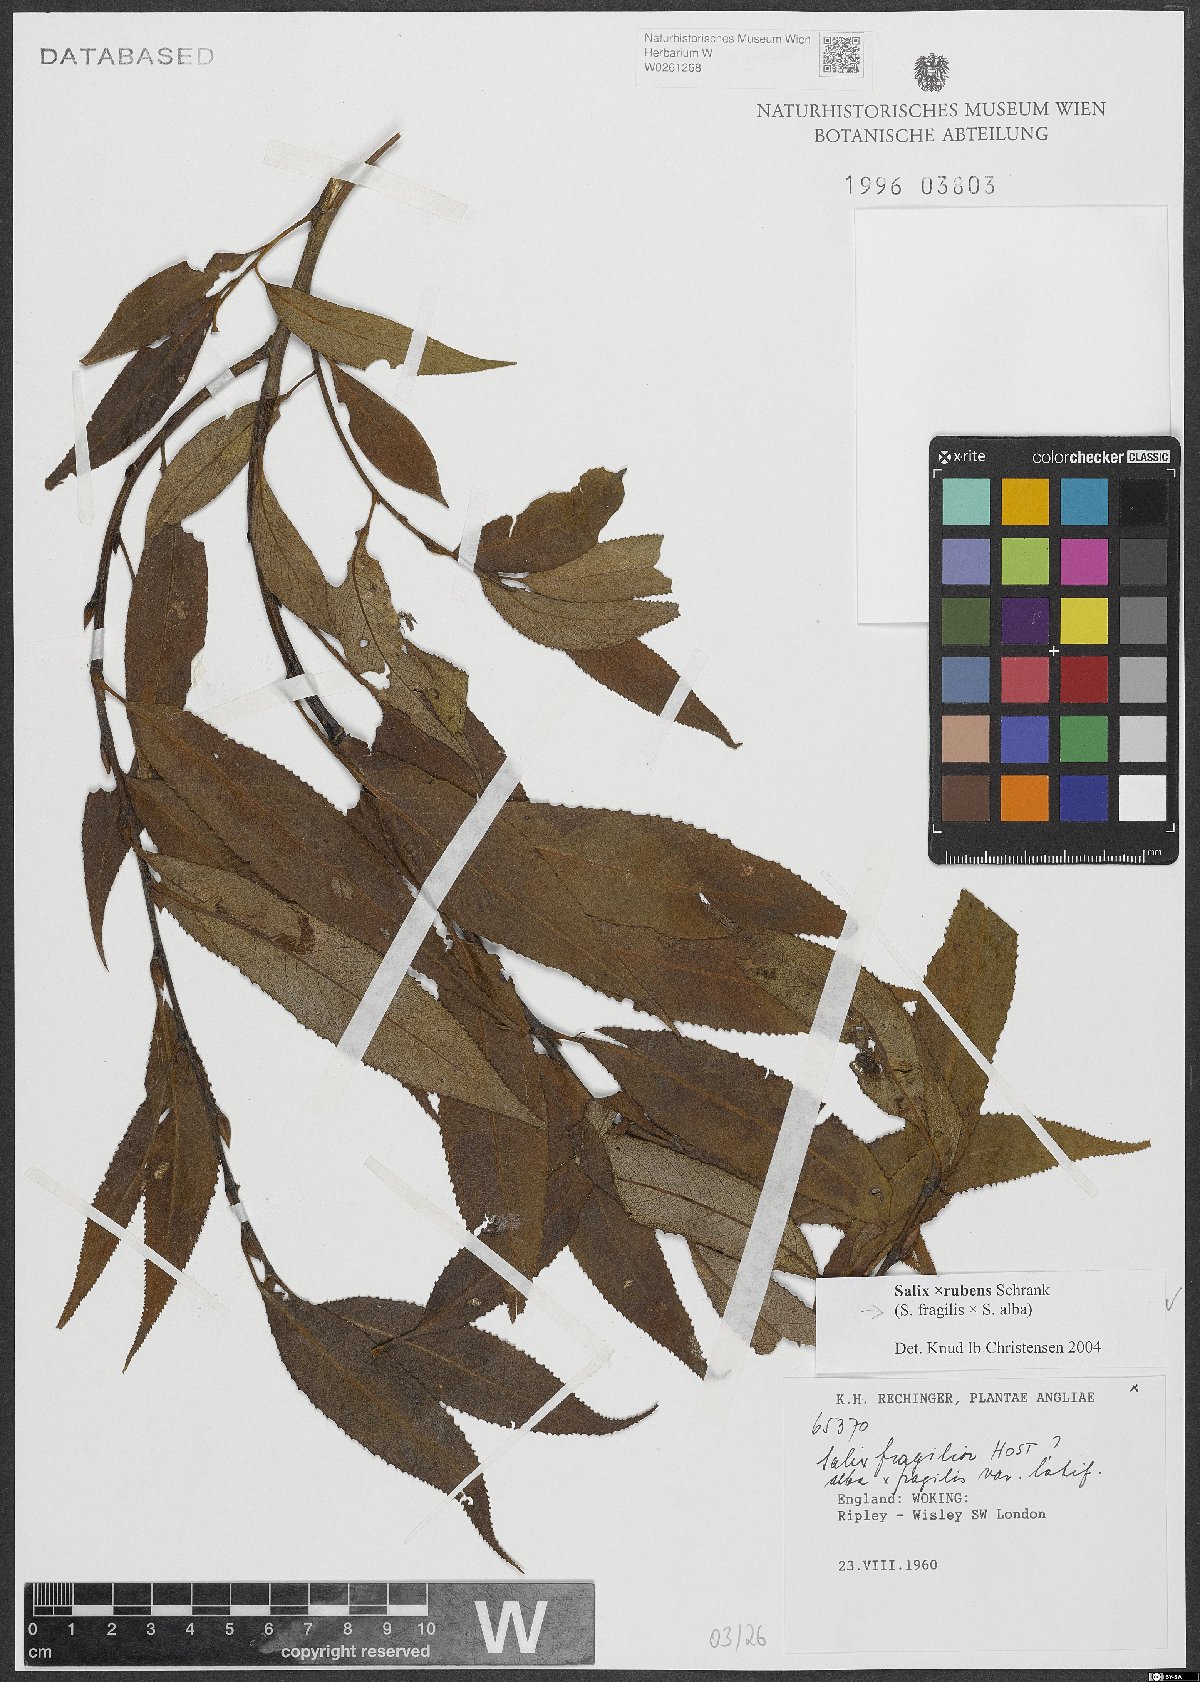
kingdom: Plantae
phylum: Tracheophyta
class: Magnoliopsida
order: Malpighiales
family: Salicaceae
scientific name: Salicaceae
